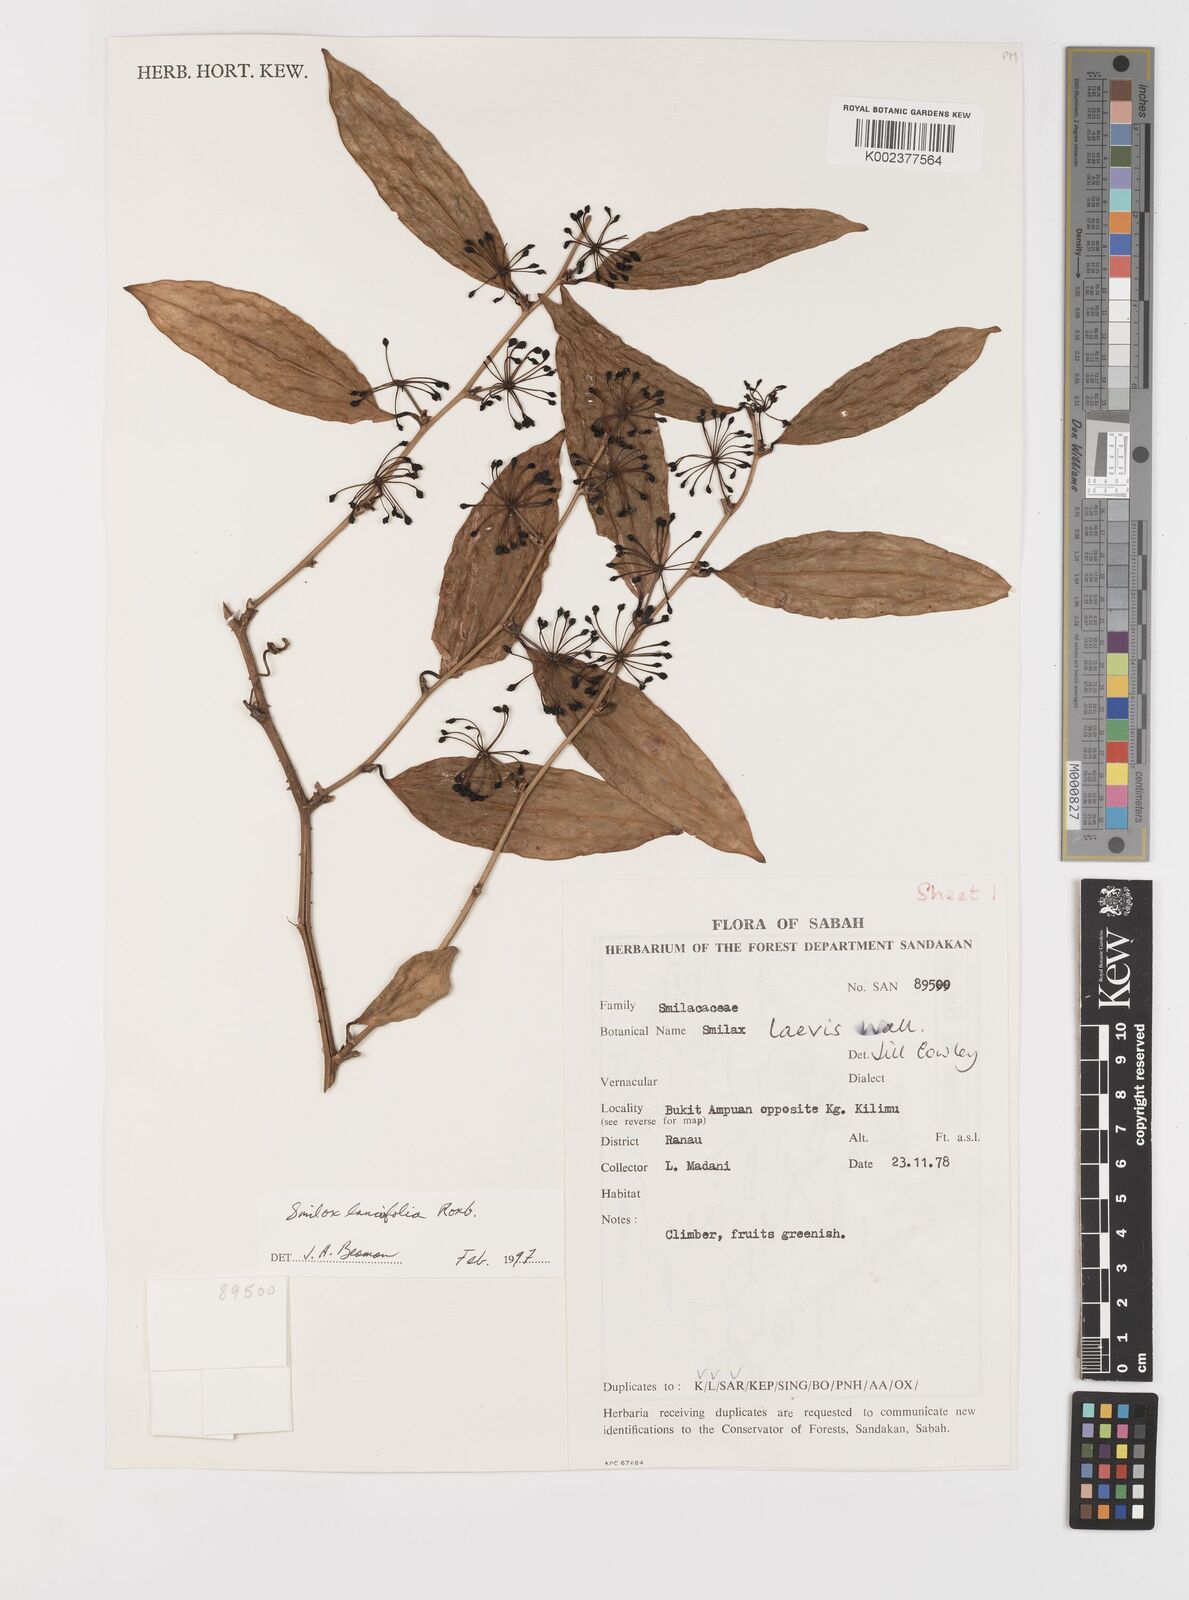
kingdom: Plantae
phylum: Tracheophyta
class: Liliopsida
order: Liliales
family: Smilacaceae
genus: Smilax
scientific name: Smilax lanceifolia
